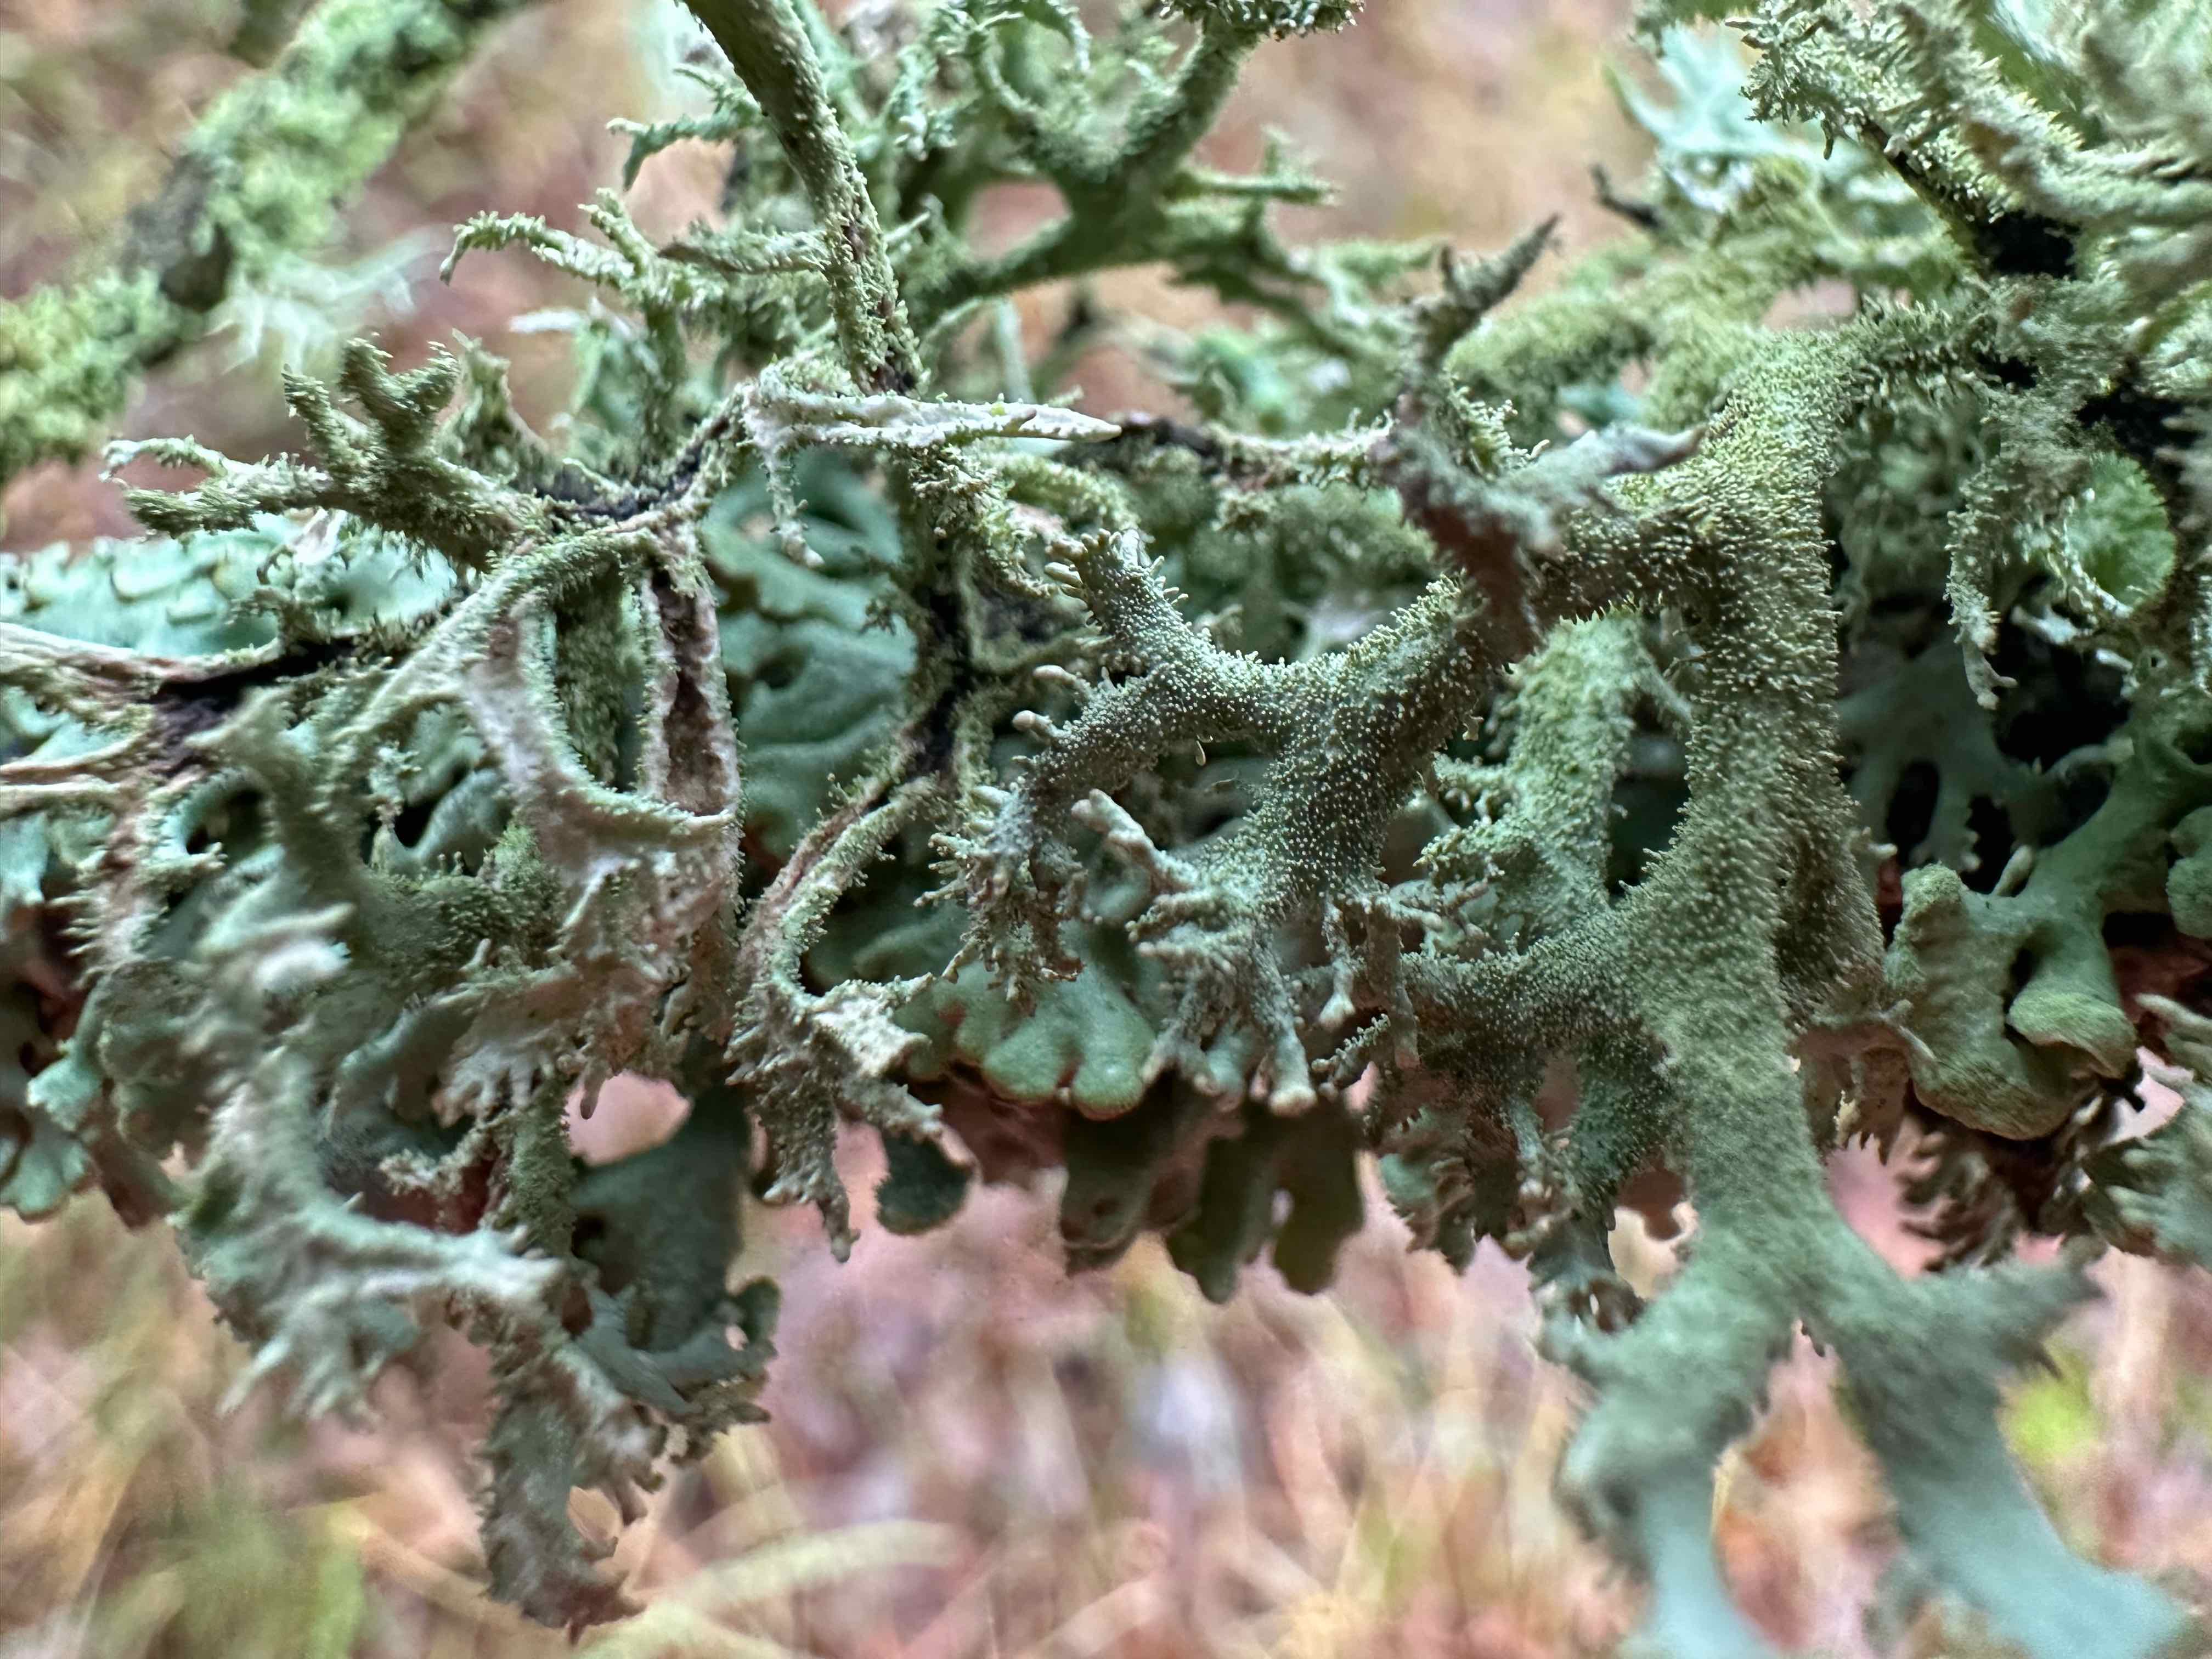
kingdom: Fungi
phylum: Ascomycota
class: Lecanoromycetes
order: Lecanorales
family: Parmeliaceae
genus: Pseudevernia
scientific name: Pseudevernia furfuracea
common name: grå fyrrelav
